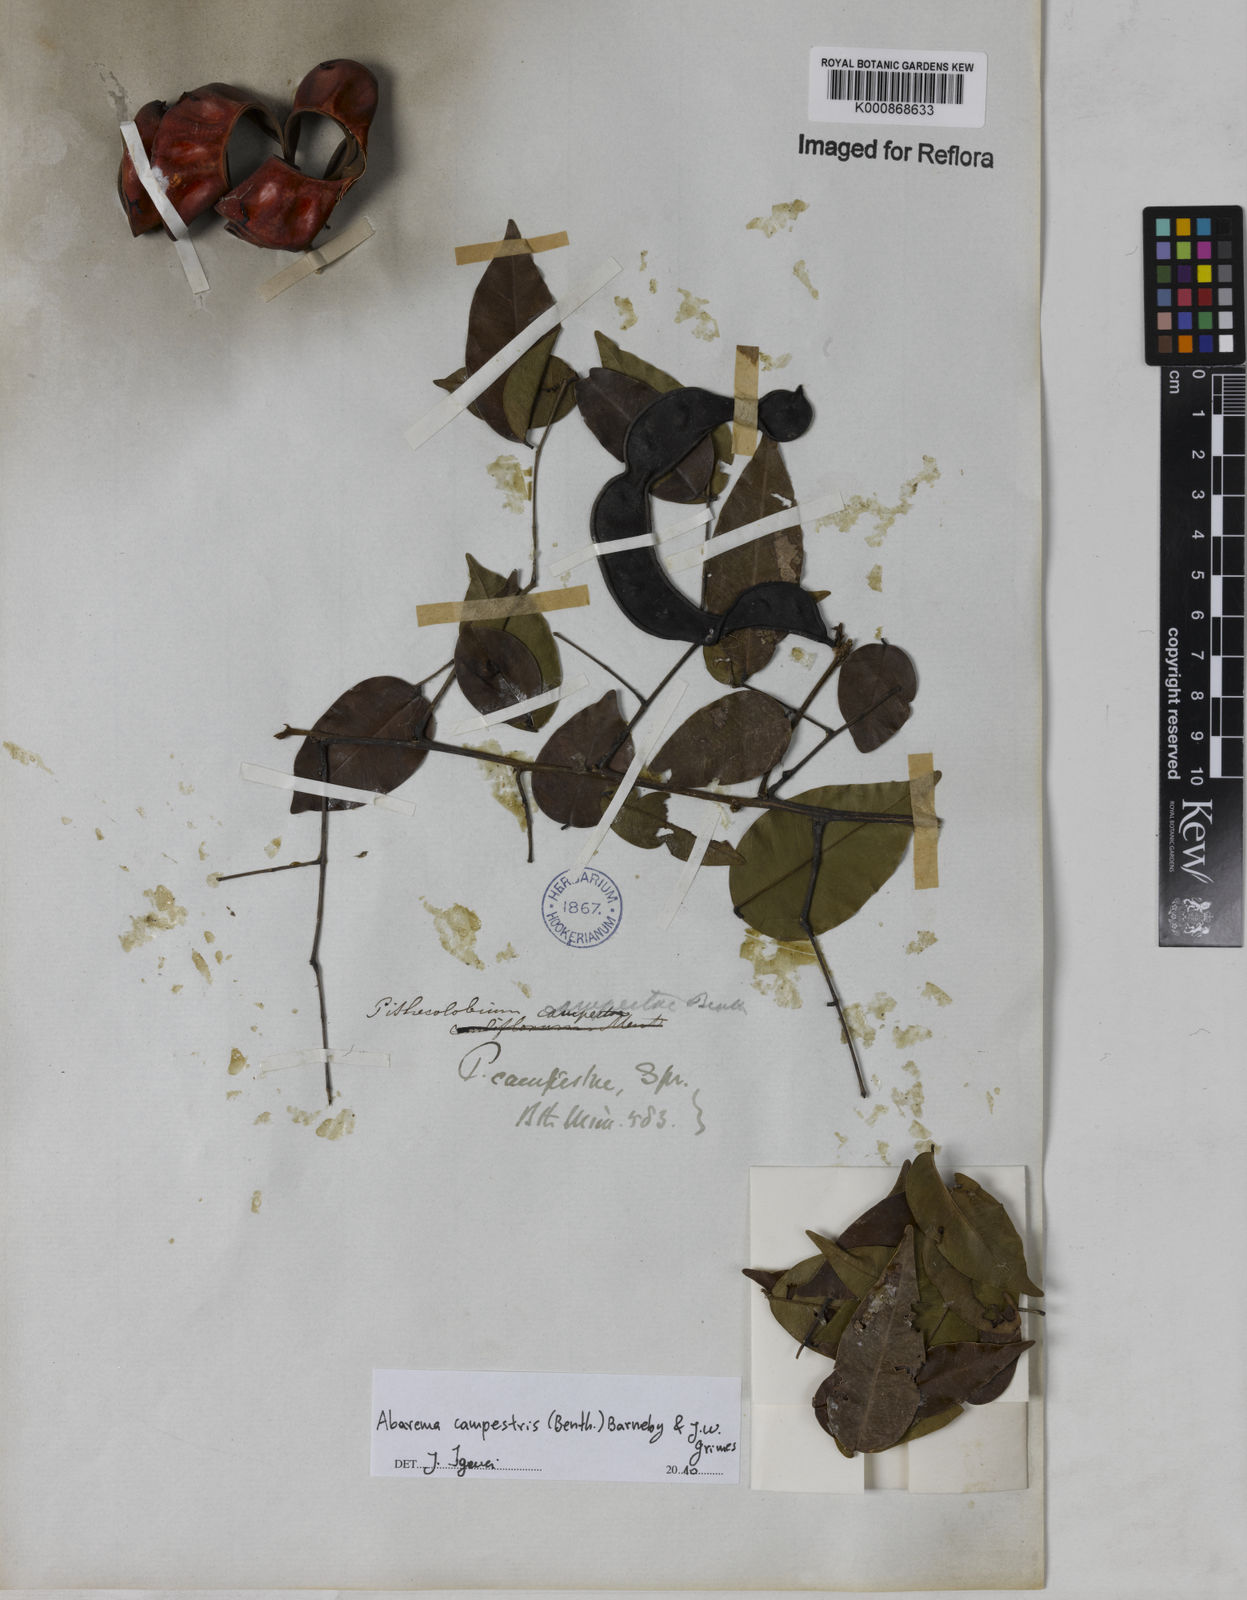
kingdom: Plantae
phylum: Tracheophyta
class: Magnoliopsida
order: Fabales
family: Fabaceae
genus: Jupunba
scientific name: Jupunba campestris
